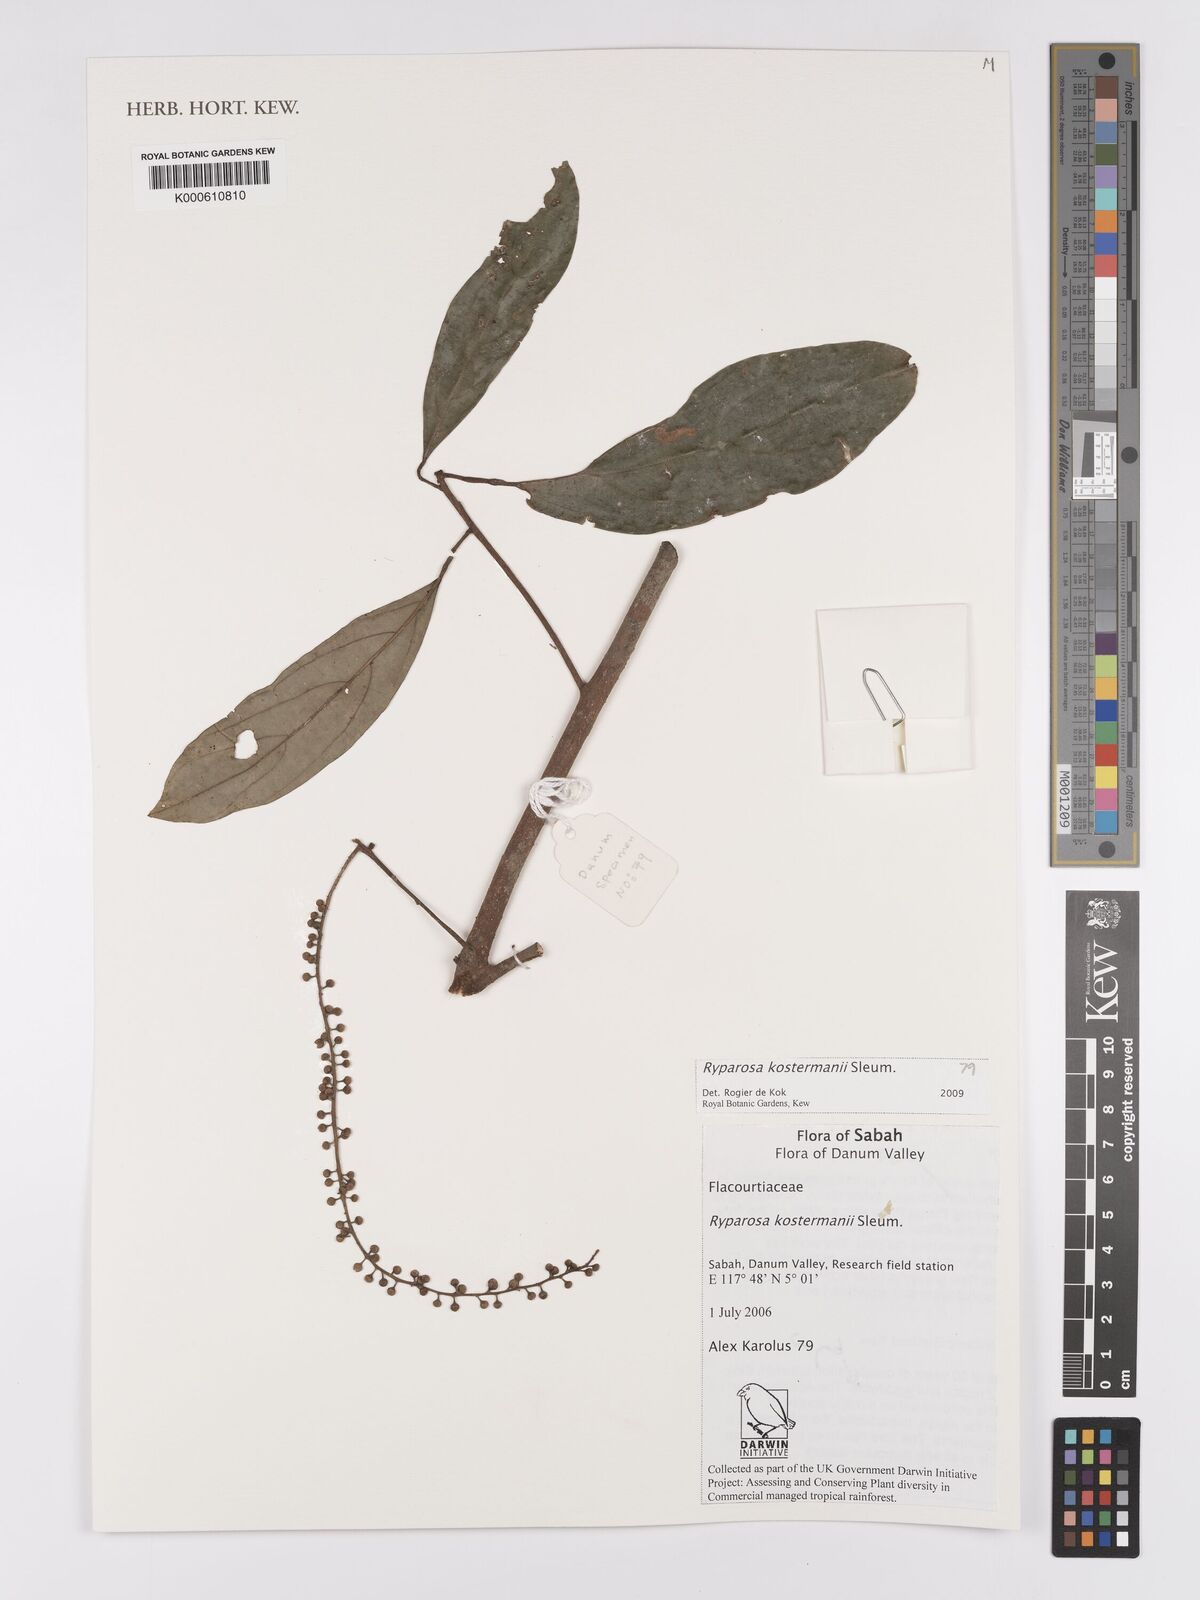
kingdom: Plantae
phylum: Tracheophyta
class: Magnoliopsida
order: Malpighiales
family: Achariaceae
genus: Ryparosa
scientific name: Ryparosa
